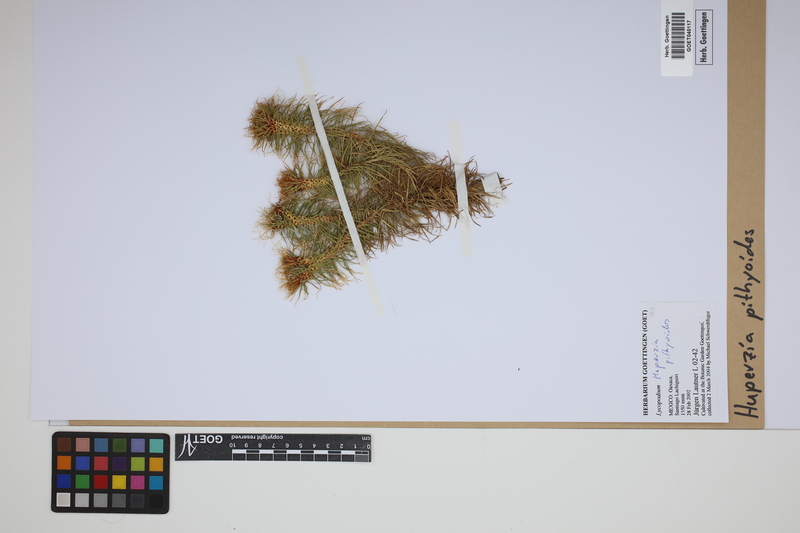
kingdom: Plantae
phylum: Tracheophyta
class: Lycopodiopsida
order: Lycopodiales
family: Lycopodiaceae
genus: Phlegmariurus
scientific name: Phlegmariurus pithyoides
